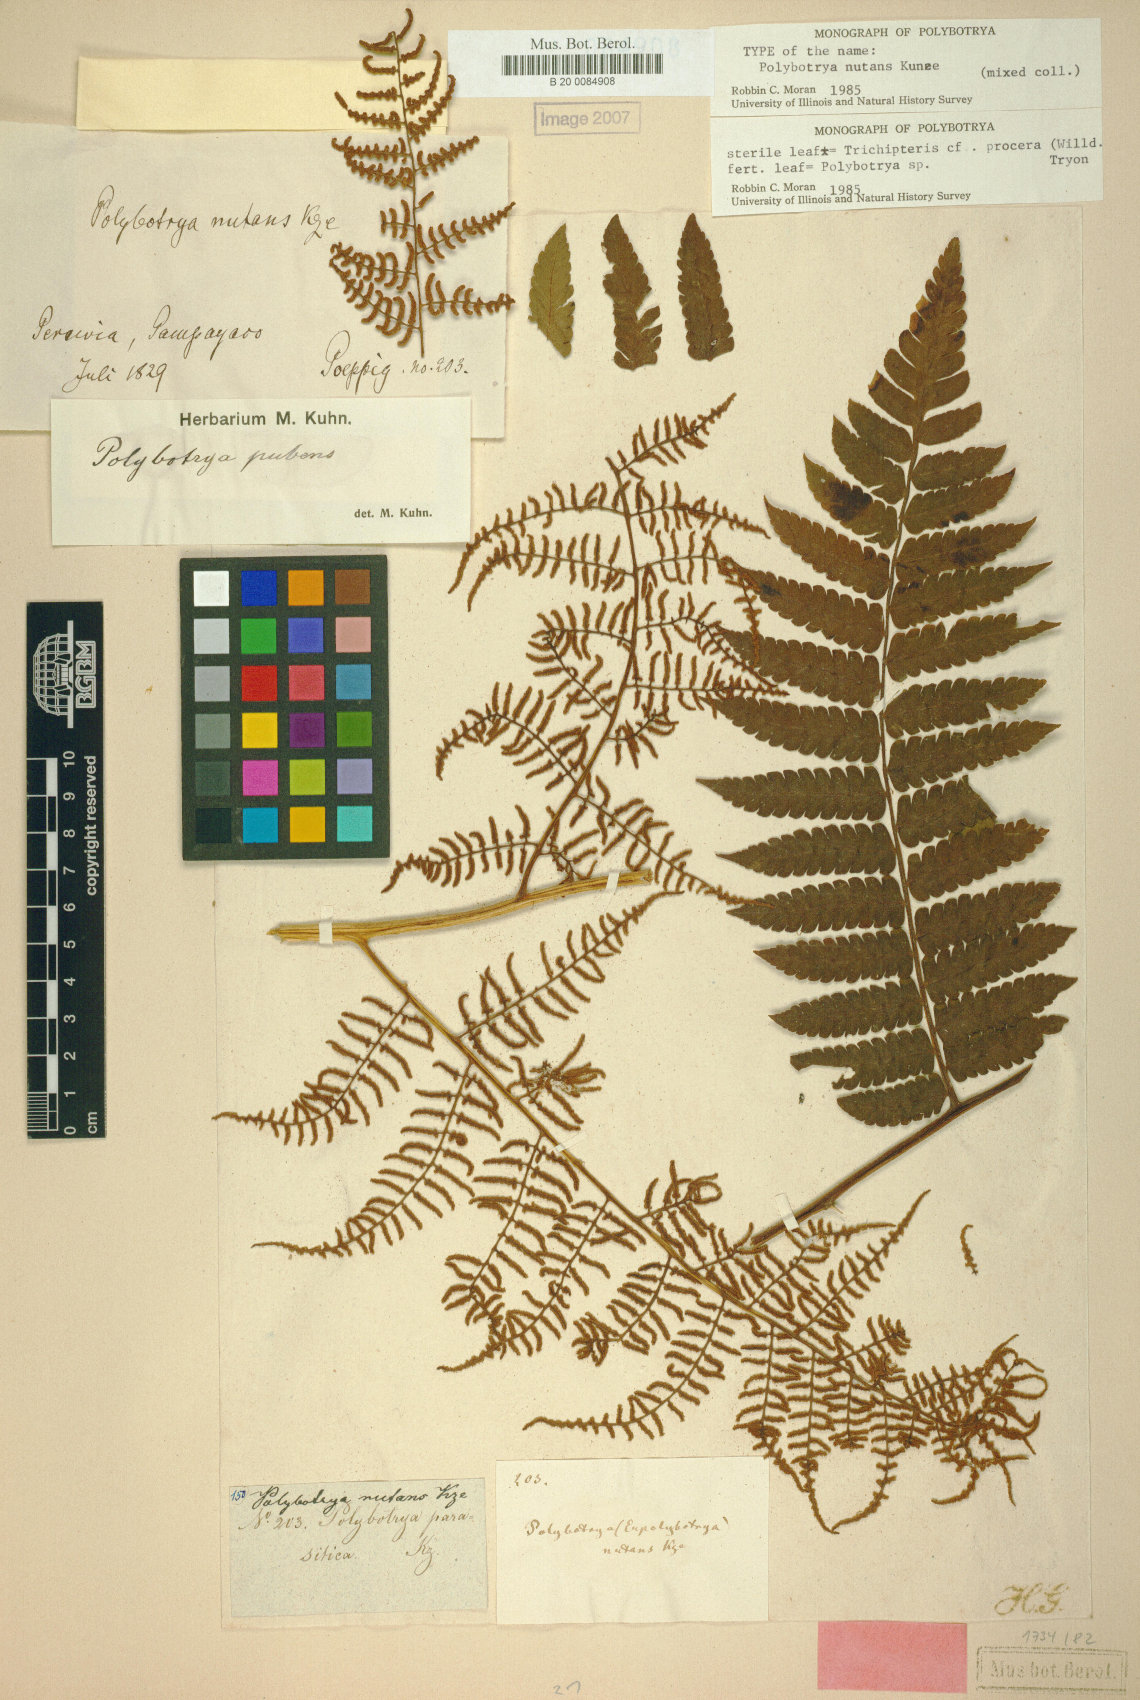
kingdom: Plantae
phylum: Tracheophyta
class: Polypodiopsida
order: Polypodiales
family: Dryopteridaceae
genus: Polybotrya
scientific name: Polybotrya nutans
